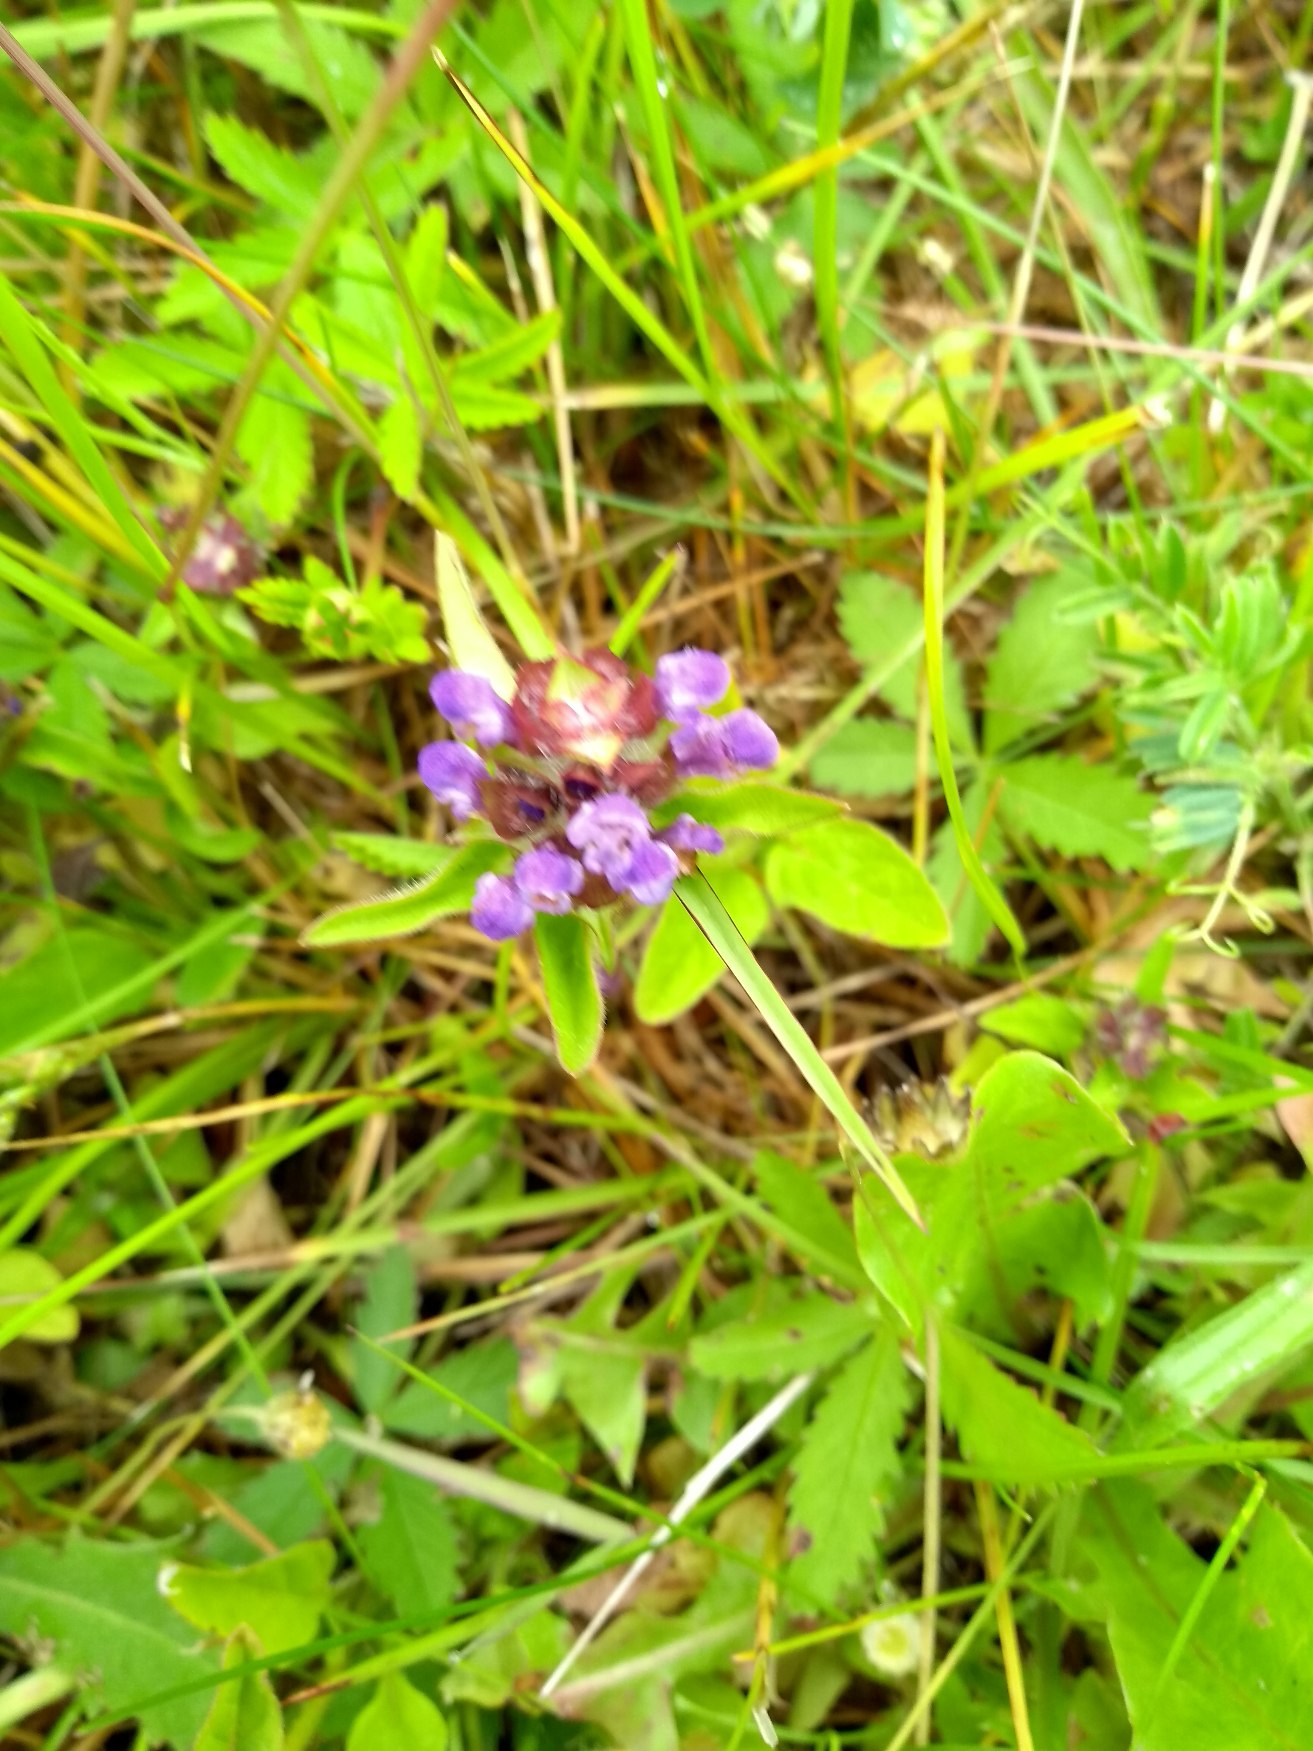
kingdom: Plantae
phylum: Tracheophyta
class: Magnoliopsida
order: Lamiales
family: Lamiaceae
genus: Prunella
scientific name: Prunella vulgaris
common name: Almindelig brunelle
